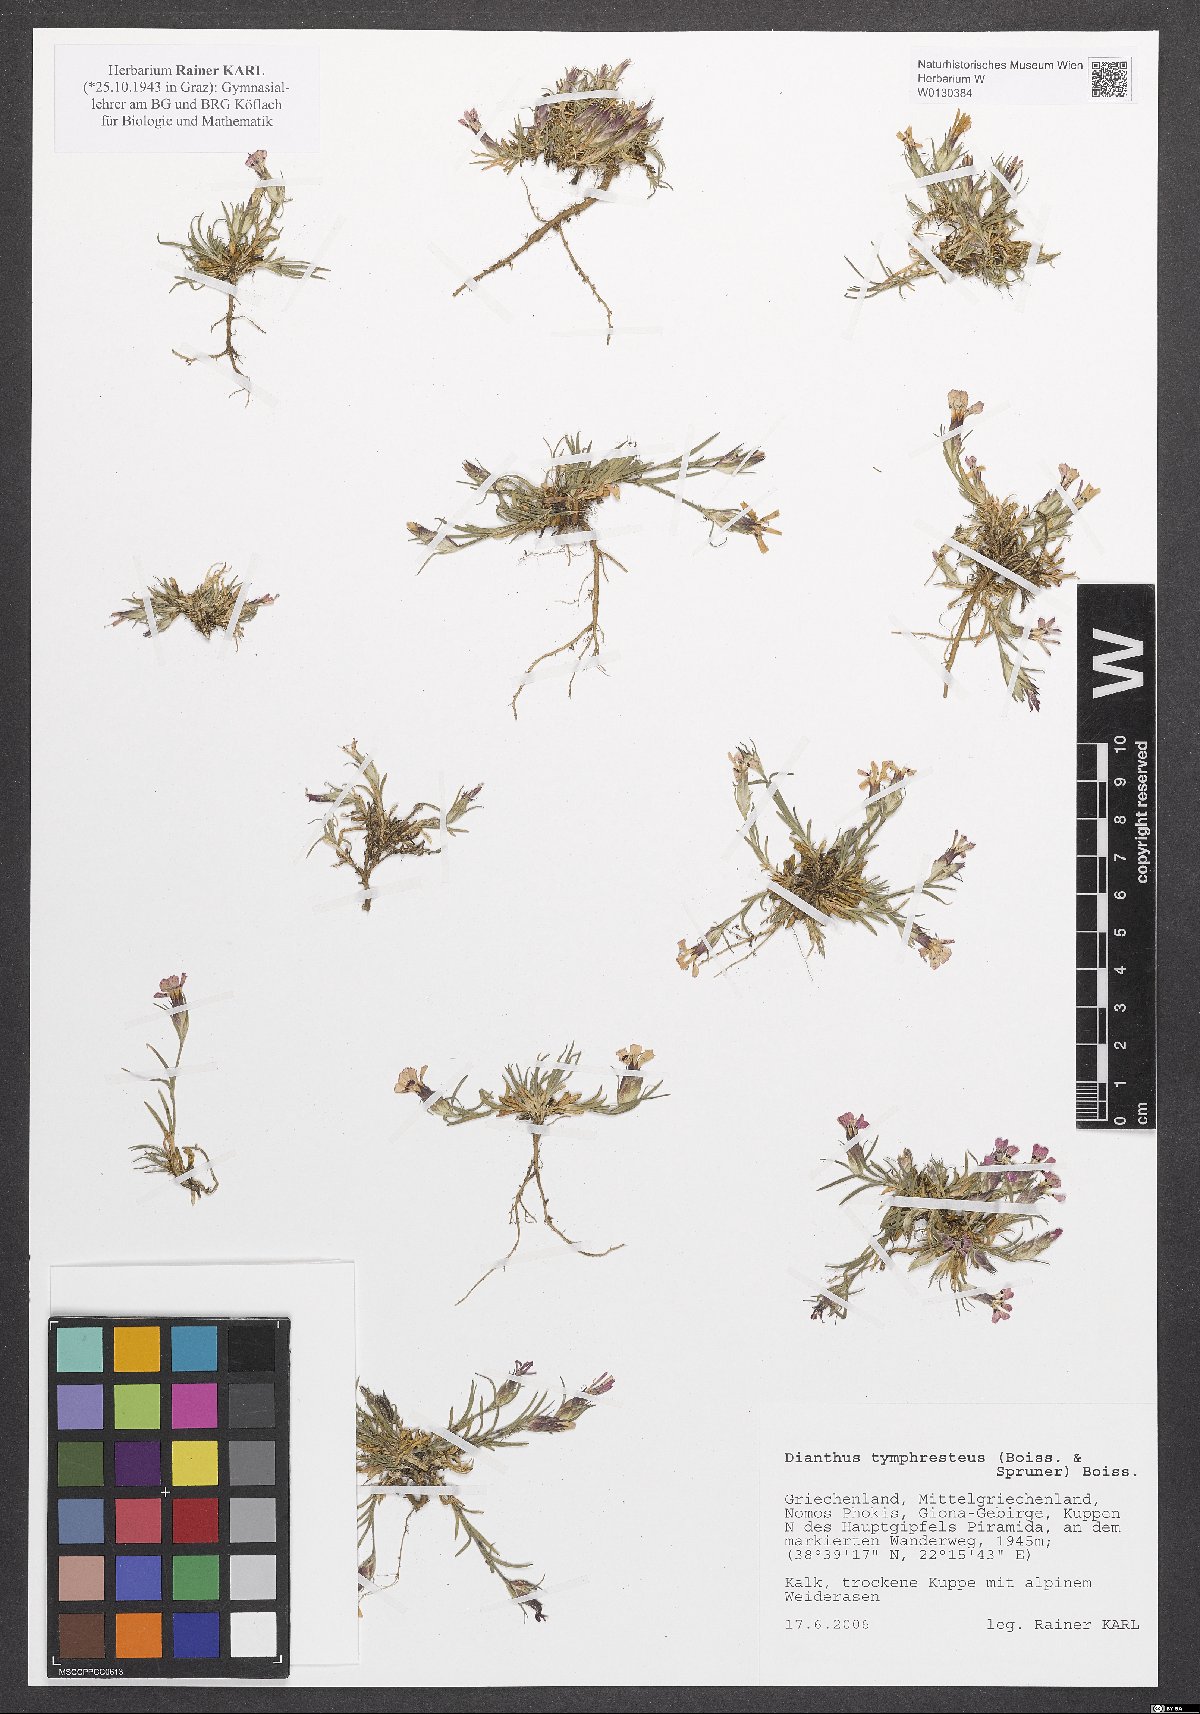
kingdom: Plantae
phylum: Tracheophyta
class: Magnoliopsida
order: Caryophyllales
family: Caryophyllaceae
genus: Dianthus
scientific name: Dianthus tymphresteus
